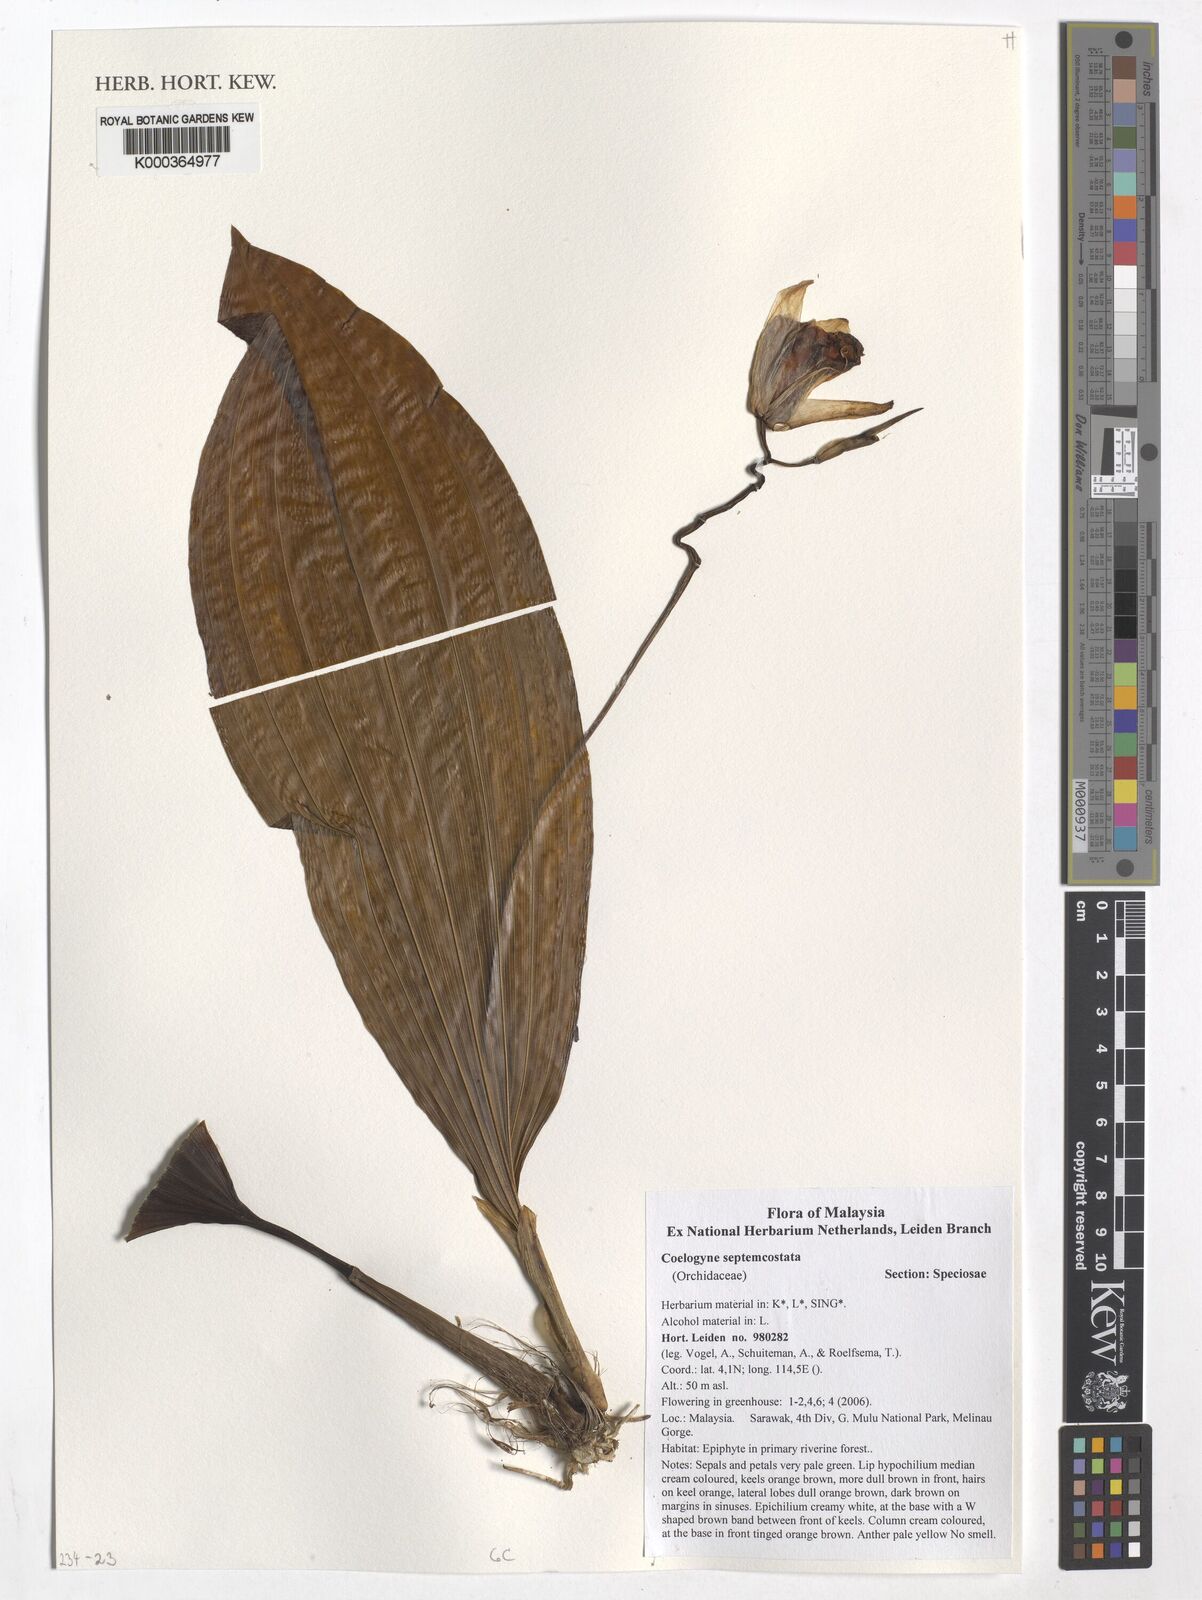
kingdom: Plantae
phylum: Tracheophyta
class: Liliopsida
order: Asparagales
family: Orchidaceae
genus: Coelogyne
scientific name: Coelogyne septemcostata
